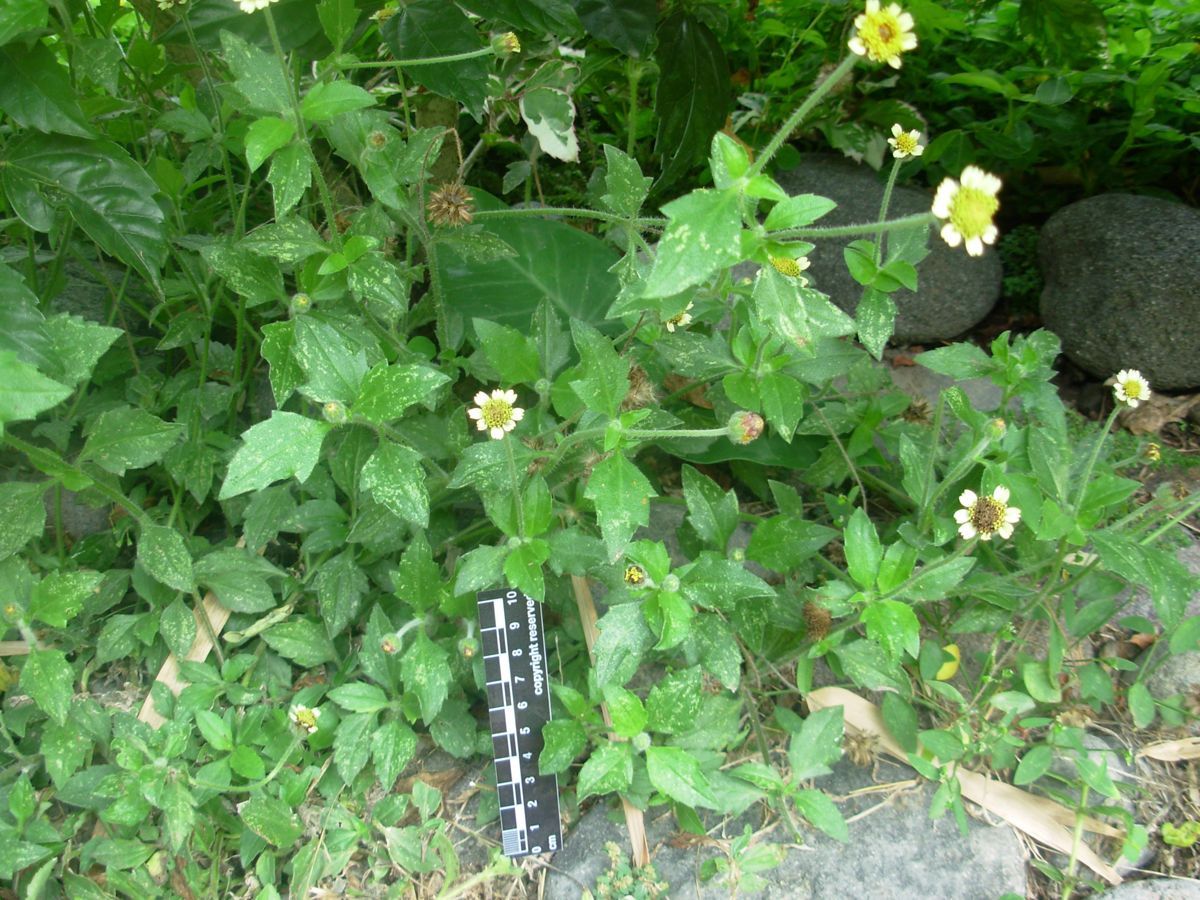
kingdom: Plantae
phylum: Tracheophyta
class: Magnoliopsida
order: Asterales
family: Asteraceae
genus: Tridax
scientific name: Tridax procumbens
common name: Coatbuttons
